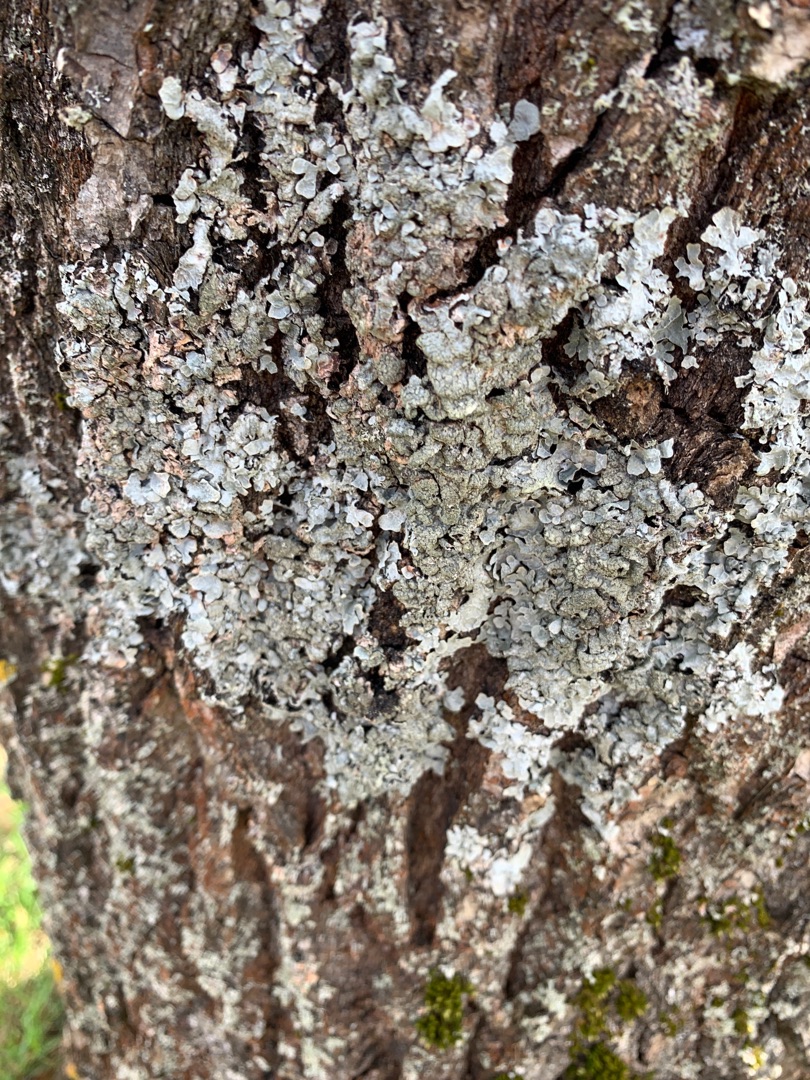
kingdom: Fungi
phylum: Ascomycota
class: Lecanoromycetes
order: Lecanorales
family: Parmeliaceae
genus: Parmelia
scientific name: Parmelia sulcata
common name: Rynket skållav
